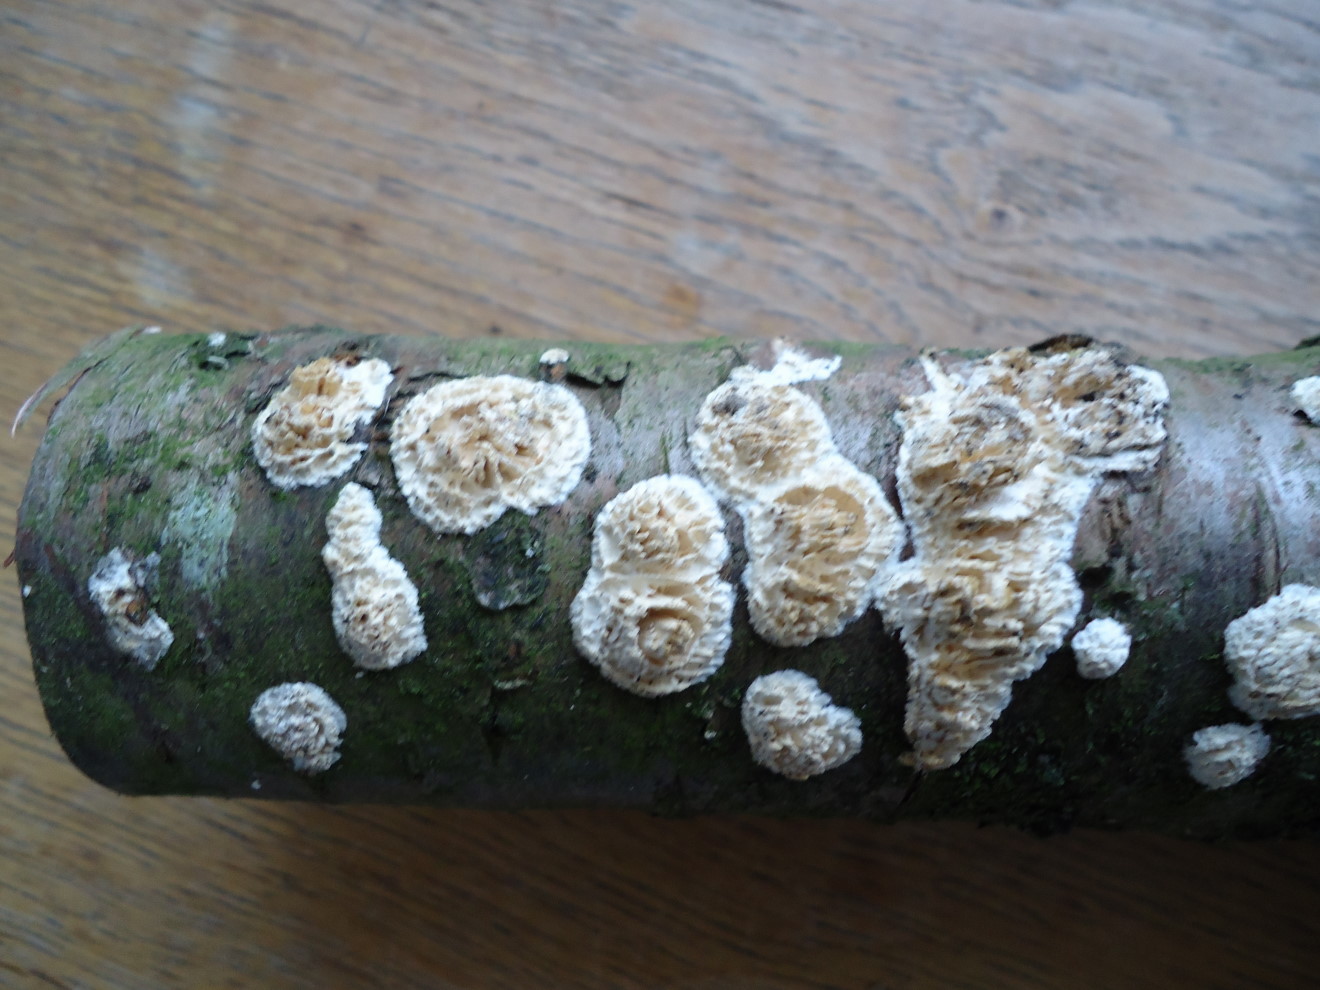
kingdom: Fungi
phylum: Basidiomycota
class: Agaricomycetes
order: Hymenochaetales
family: Schizoporaceae
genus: Xylodon
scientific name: Xylodon radula
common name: grovtandet kalkskind
